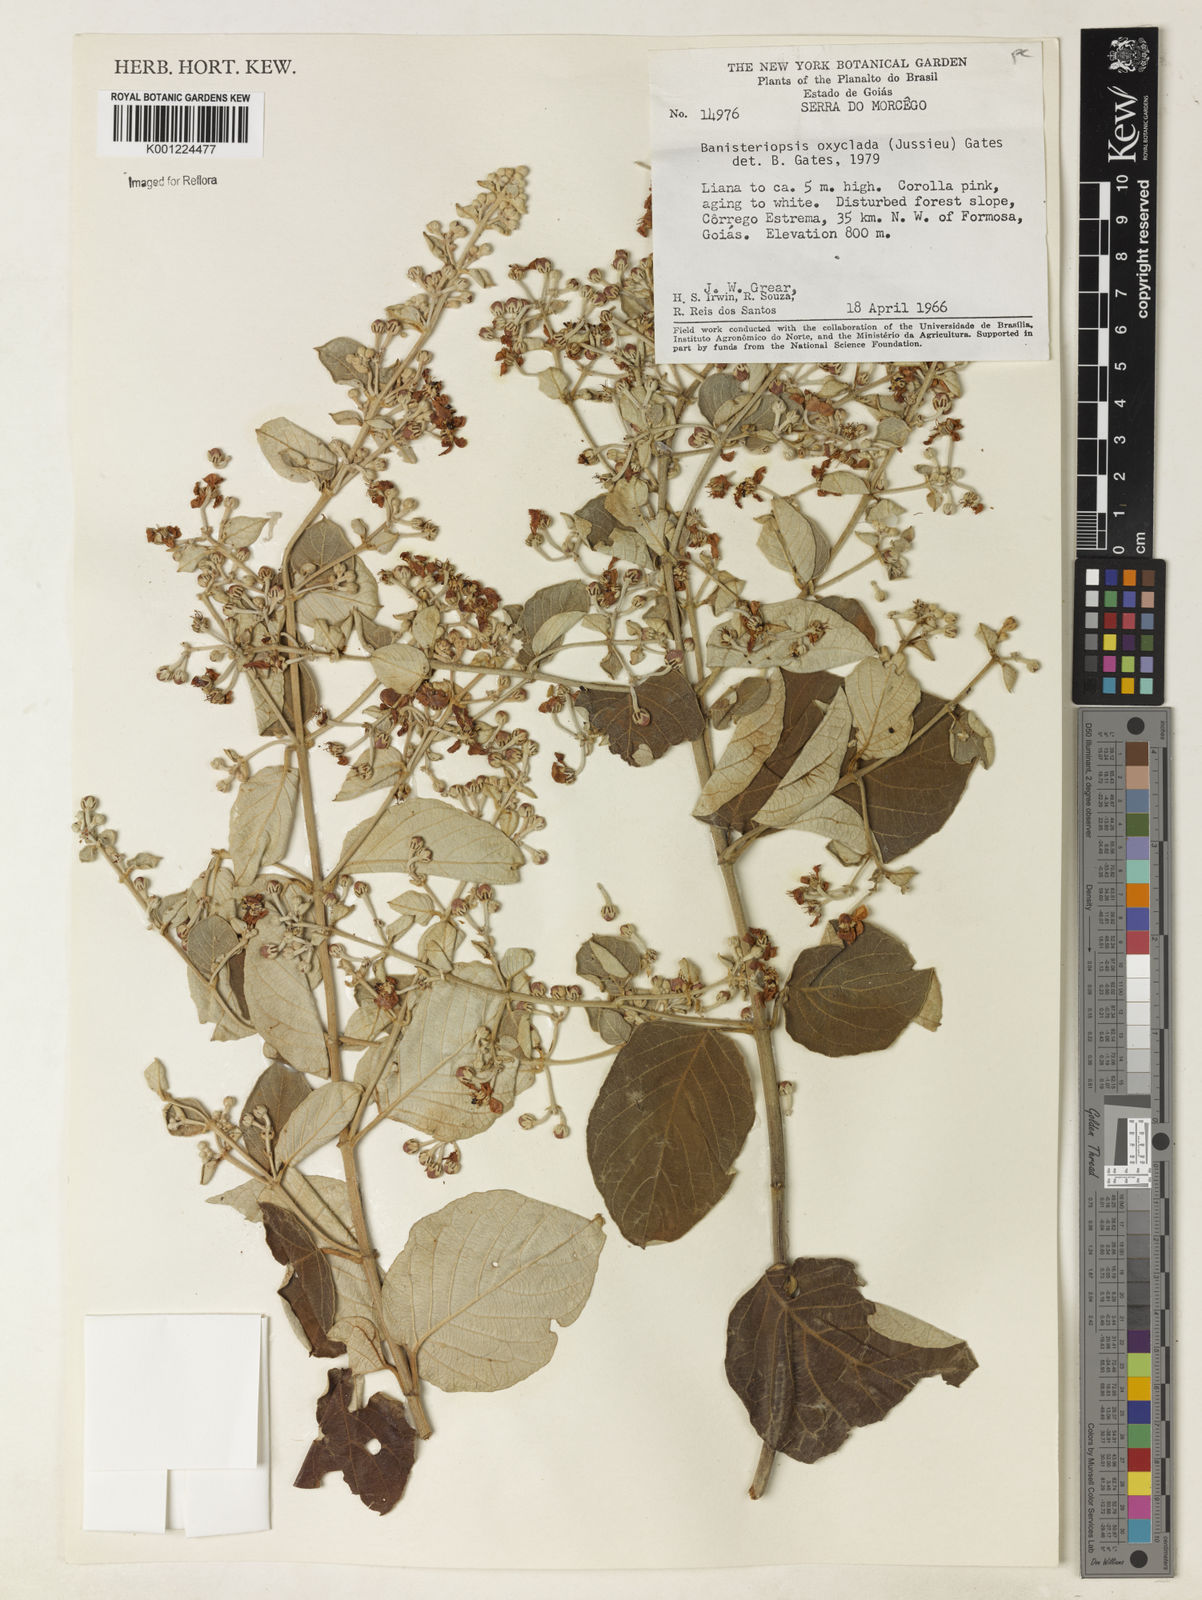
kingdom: Plantae
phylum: Tracheophyta
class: Magnoliopsida
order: Malpighiales
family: Malpighiaceae
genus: Banisteriopsis
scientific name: Banisteriopsis oxyclada
